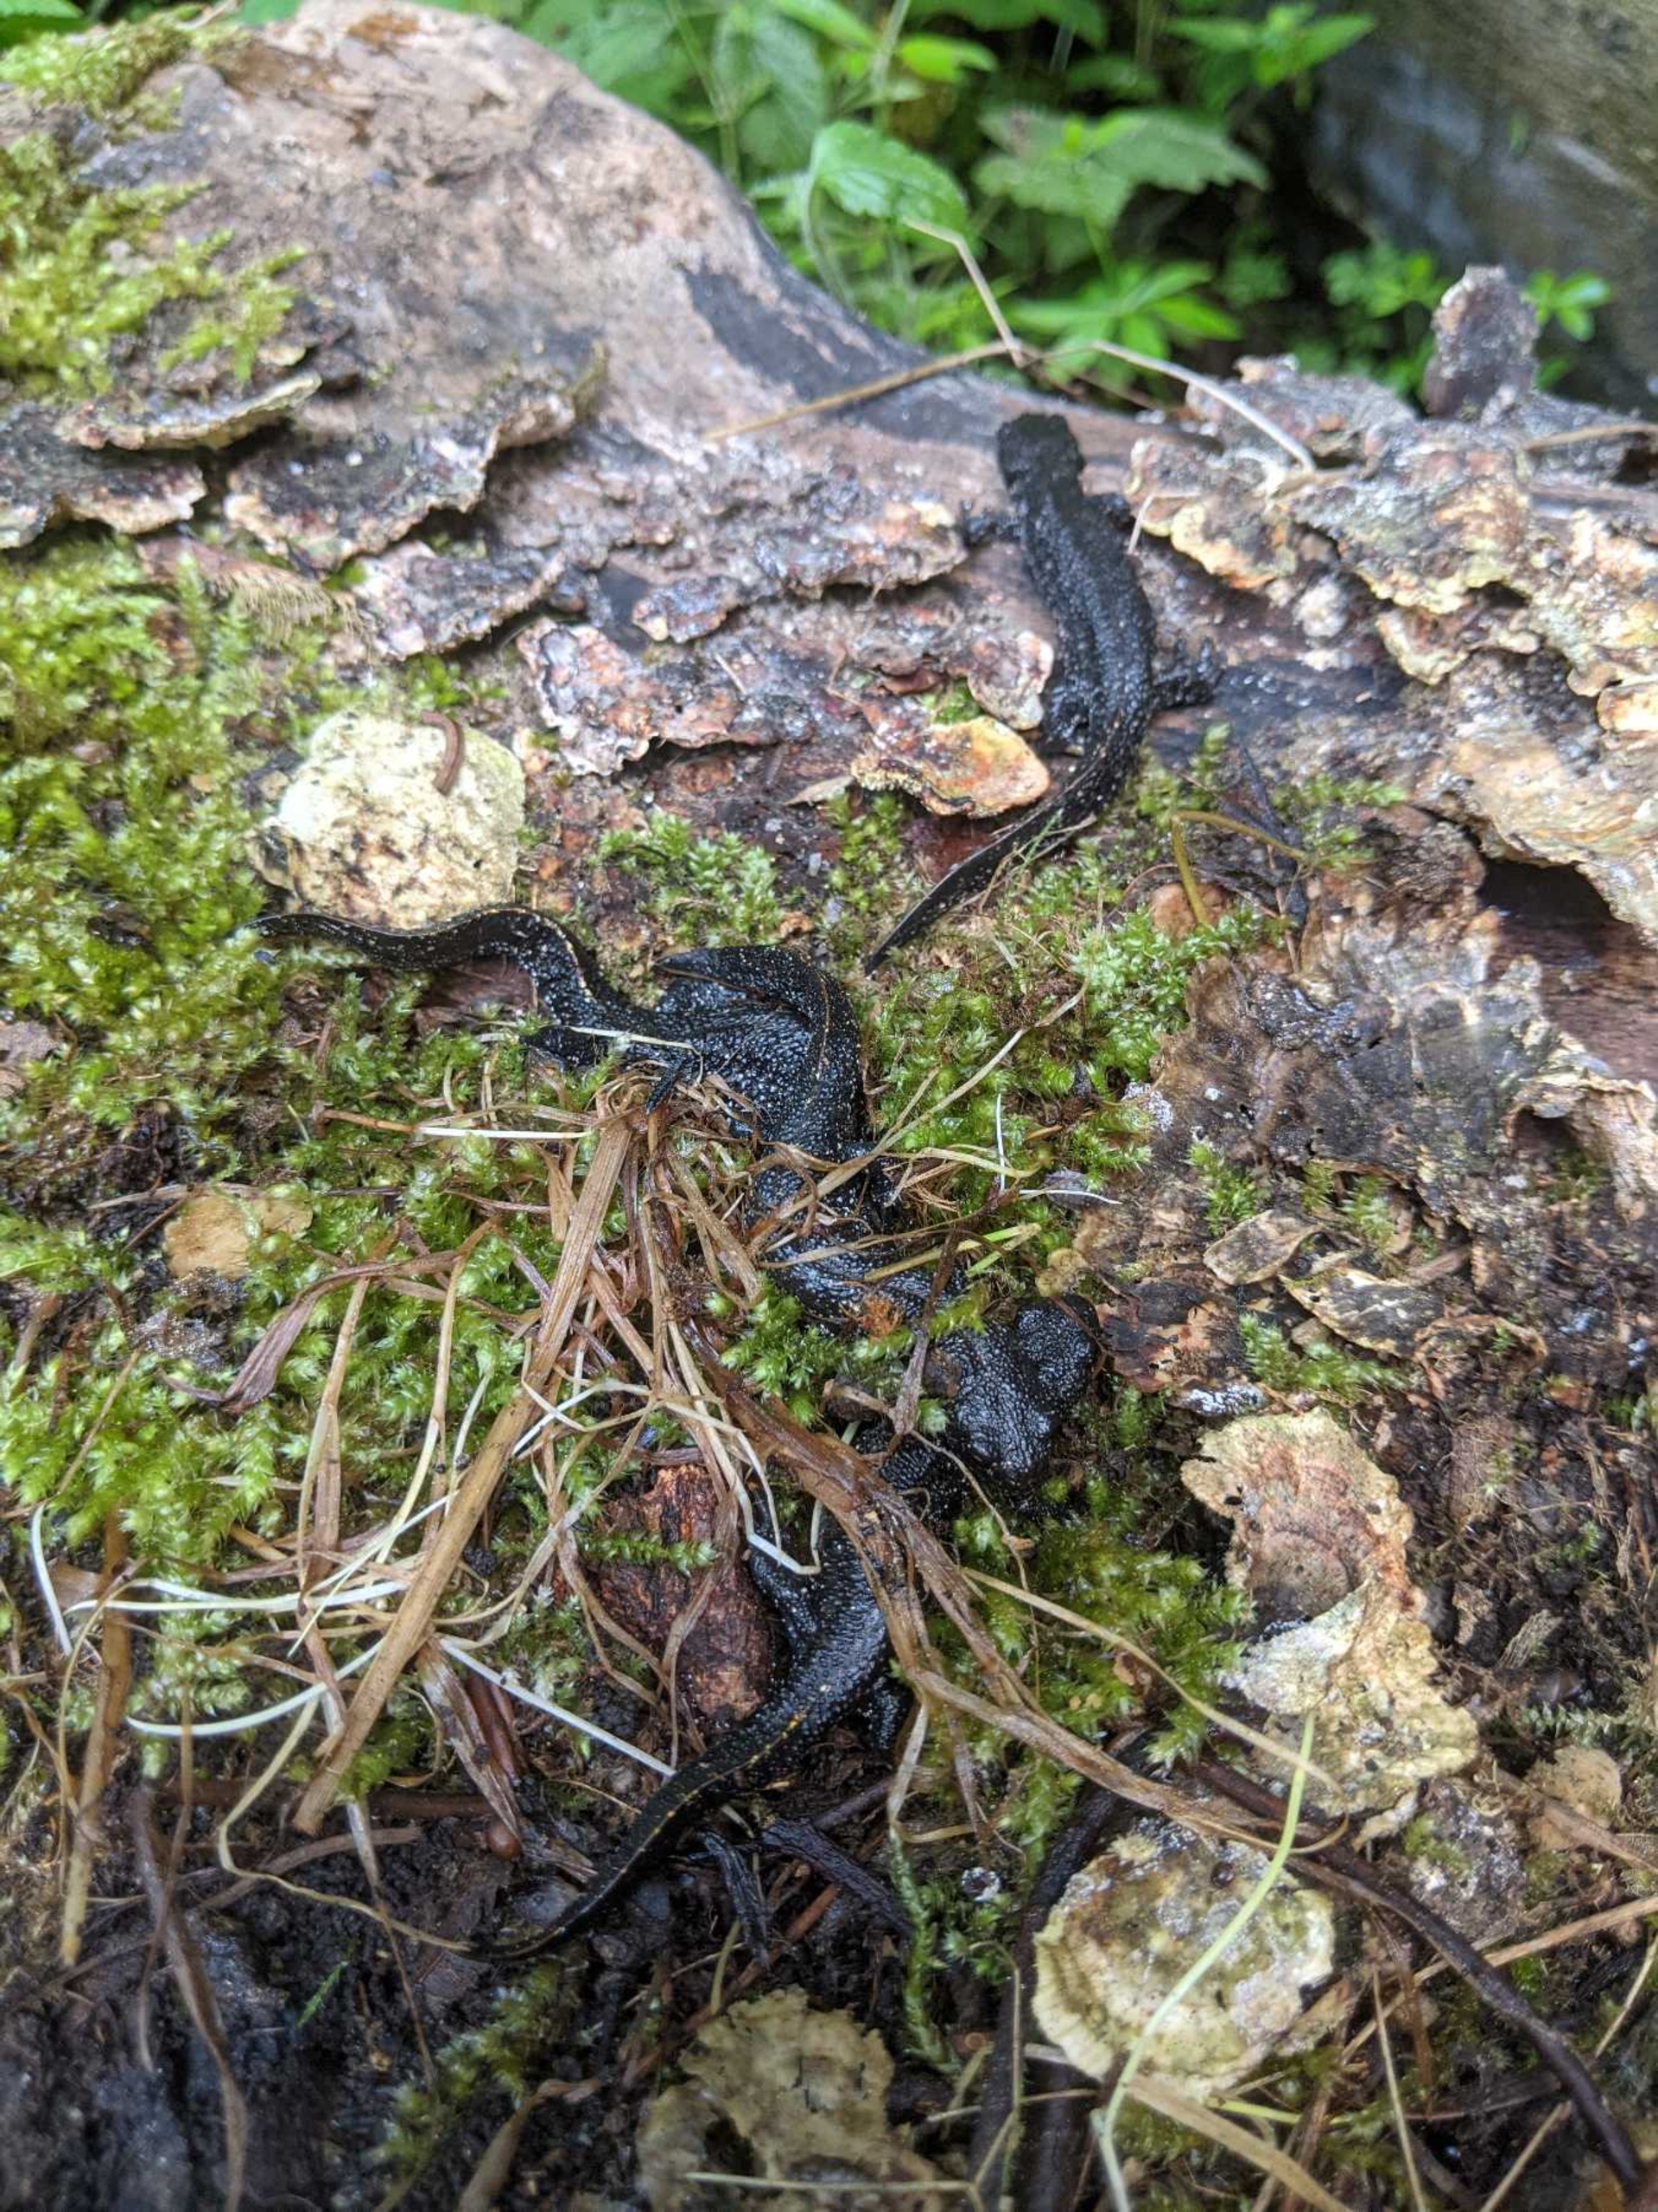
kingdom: Animalia
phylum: Chordata
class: Amphibia
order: Caudata
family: Salamandridae
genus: Triturus
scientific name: Triturus cristatus
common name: Stor vandsalamander
